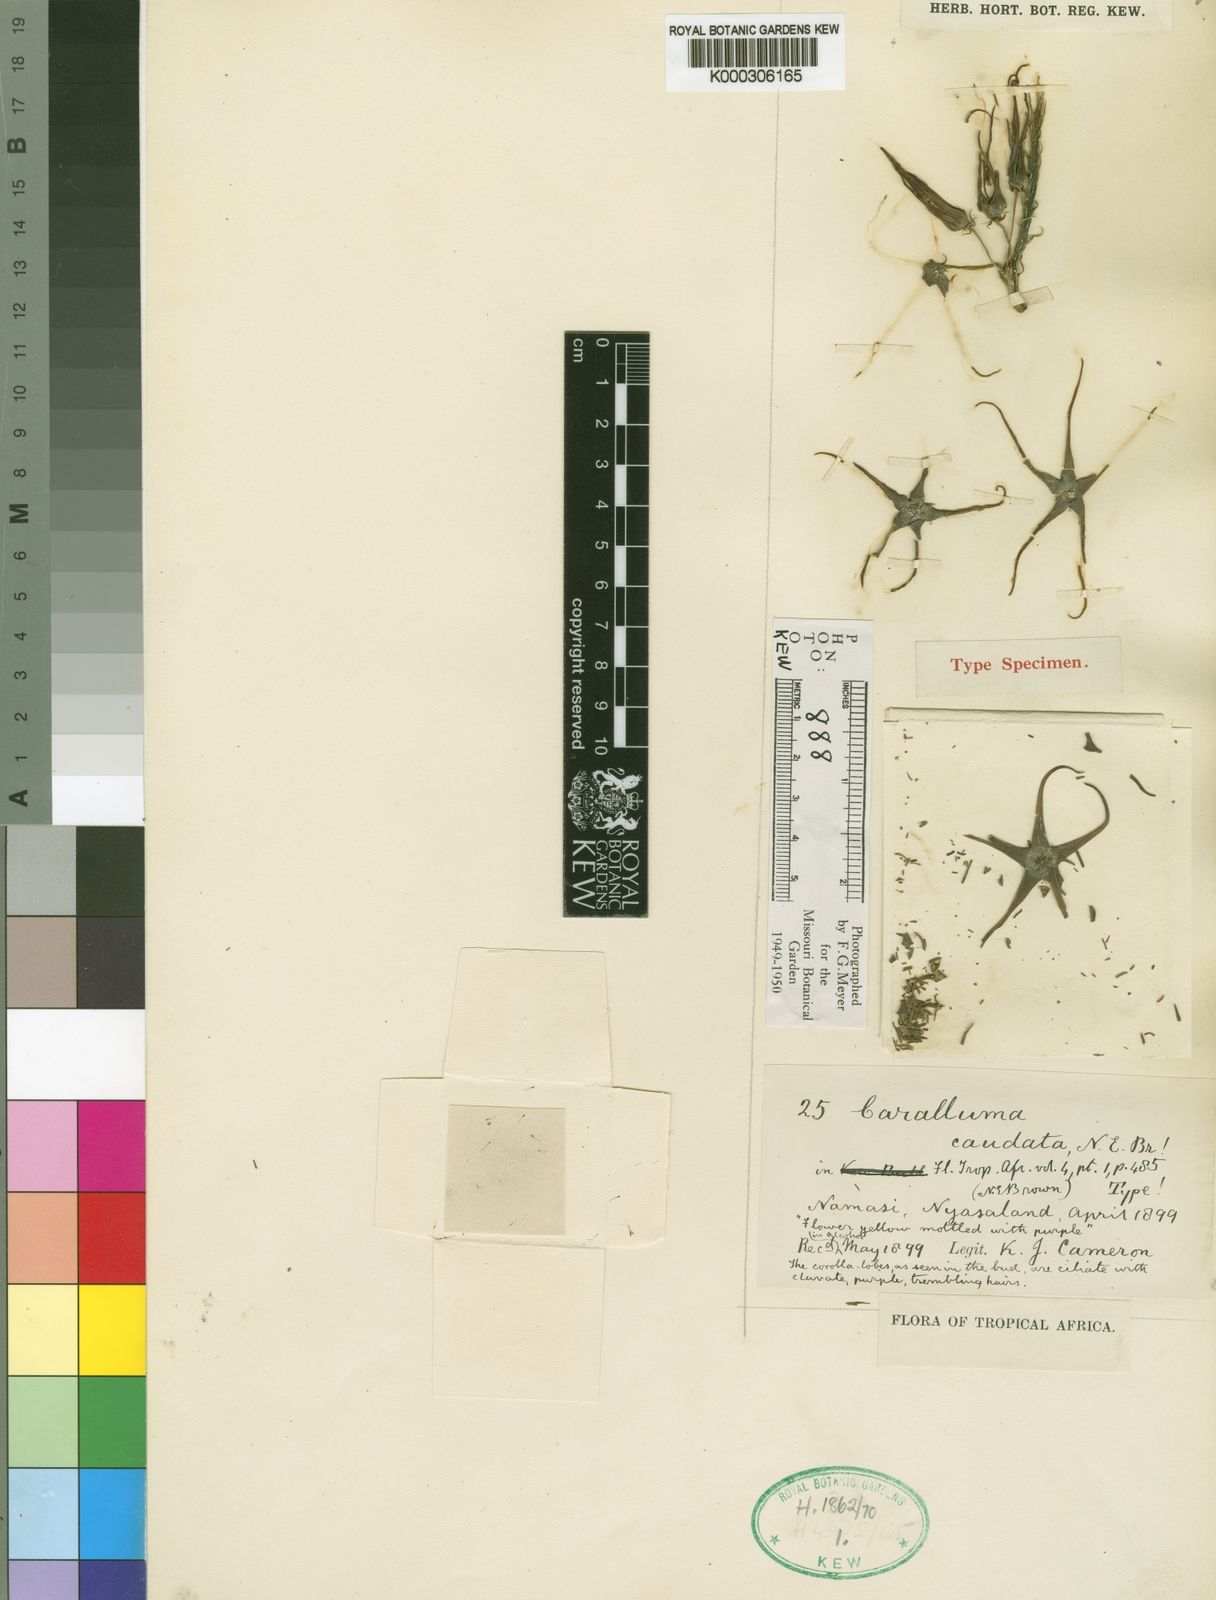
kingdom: Plantae
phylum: Tracheophyta
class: Magnoliopsida
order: Gentianales
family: Apocynaceae
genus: Ceropegia
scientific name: Ceropegia caudata
